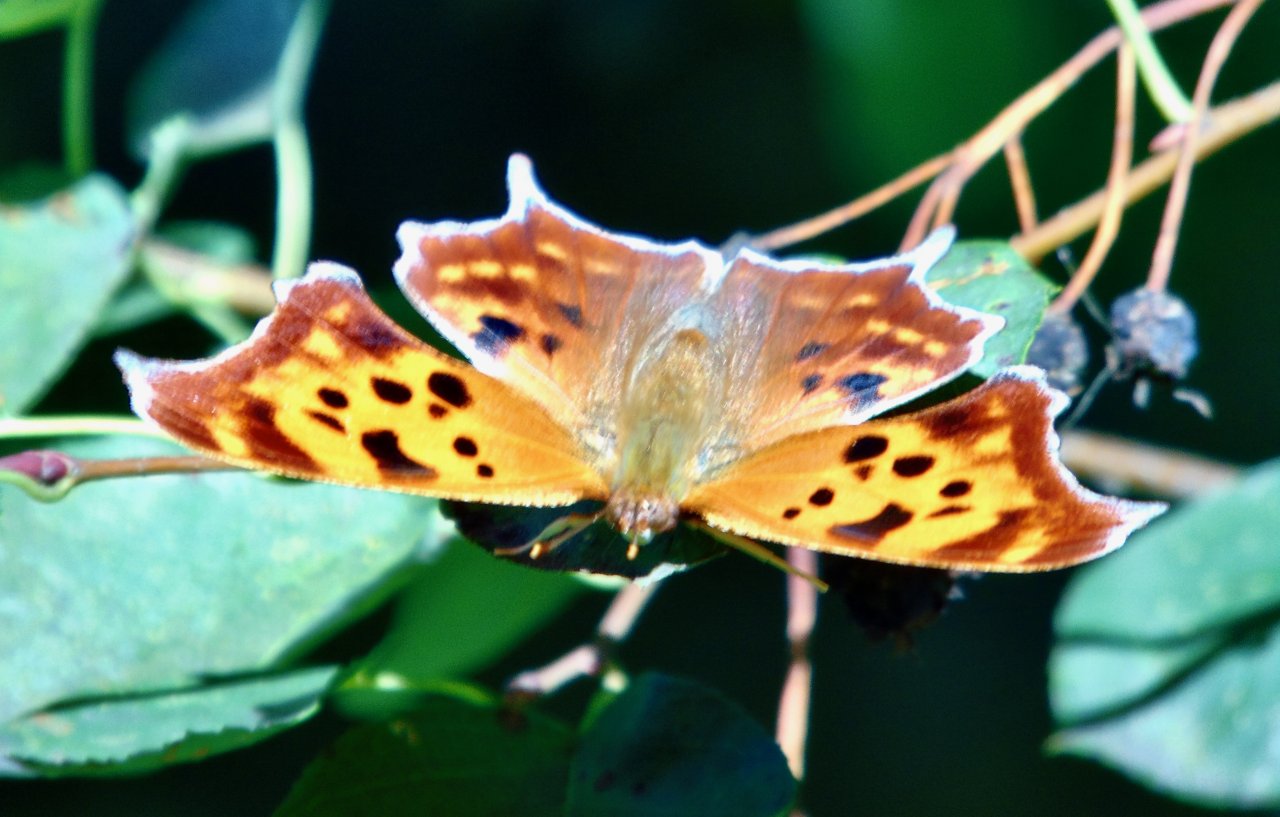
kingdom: Animalia
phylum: Arthropoda
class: Insecta
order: Lepidoptera
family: Nymphalidae
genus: Polygonia
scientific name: Polygonia interrogationis
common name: Question Mark
